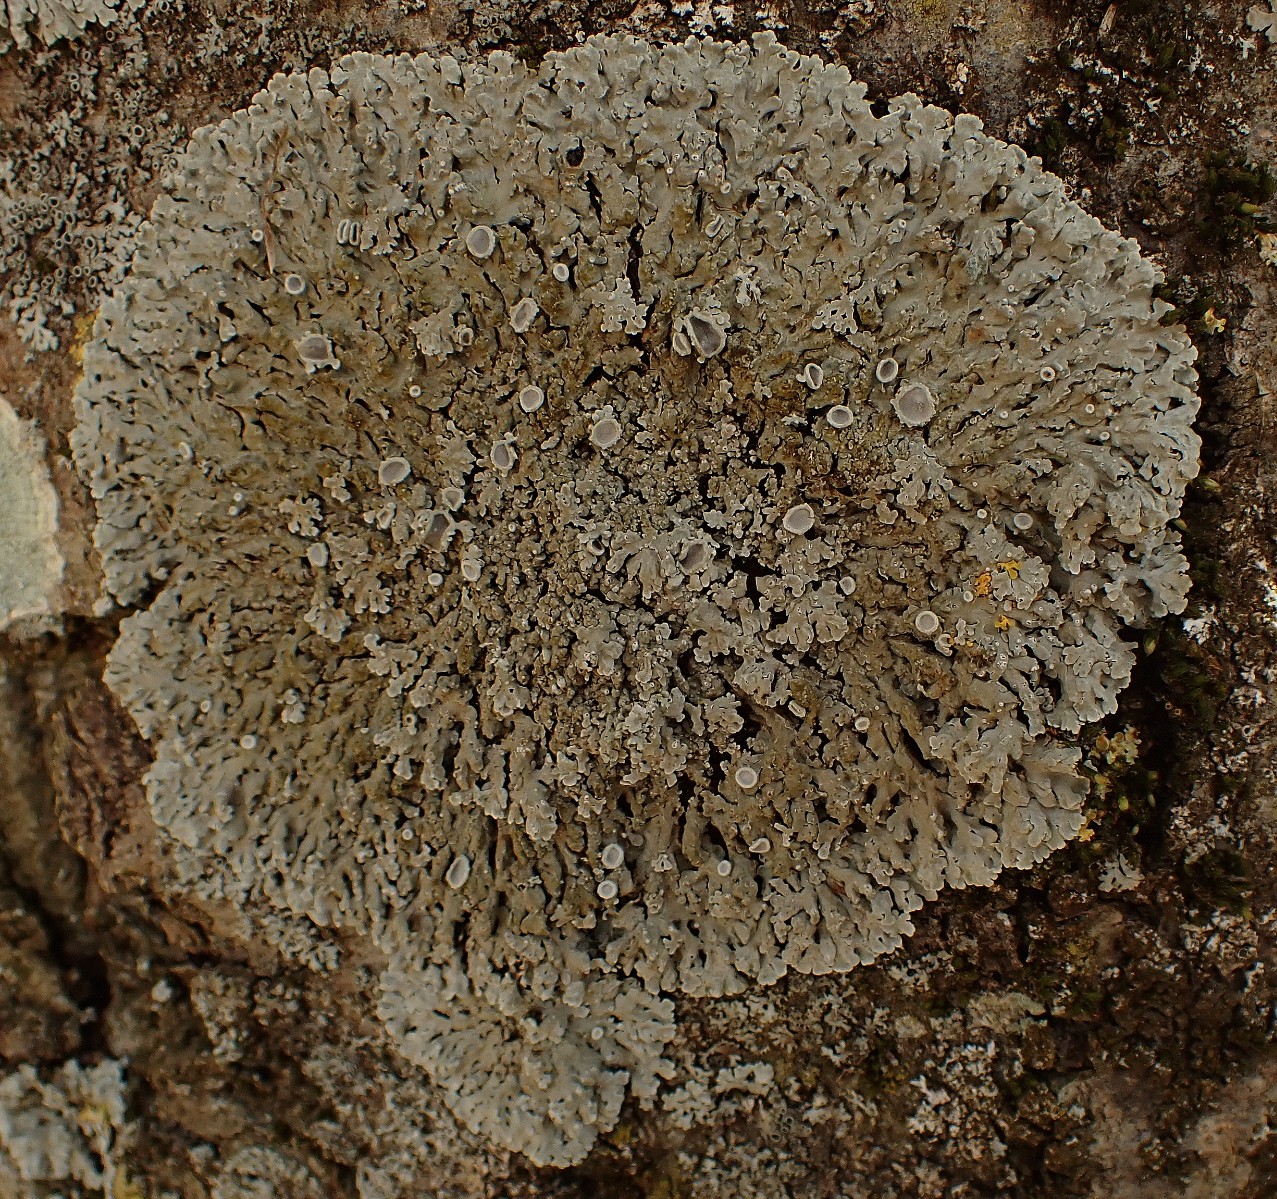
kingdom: Fungi
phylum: Ascomycota
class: Lecanoromycetes
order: Caliciales
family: Physciaceae
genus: Physconia
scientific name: Physconia distorta
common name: pudret dugrosetlav
